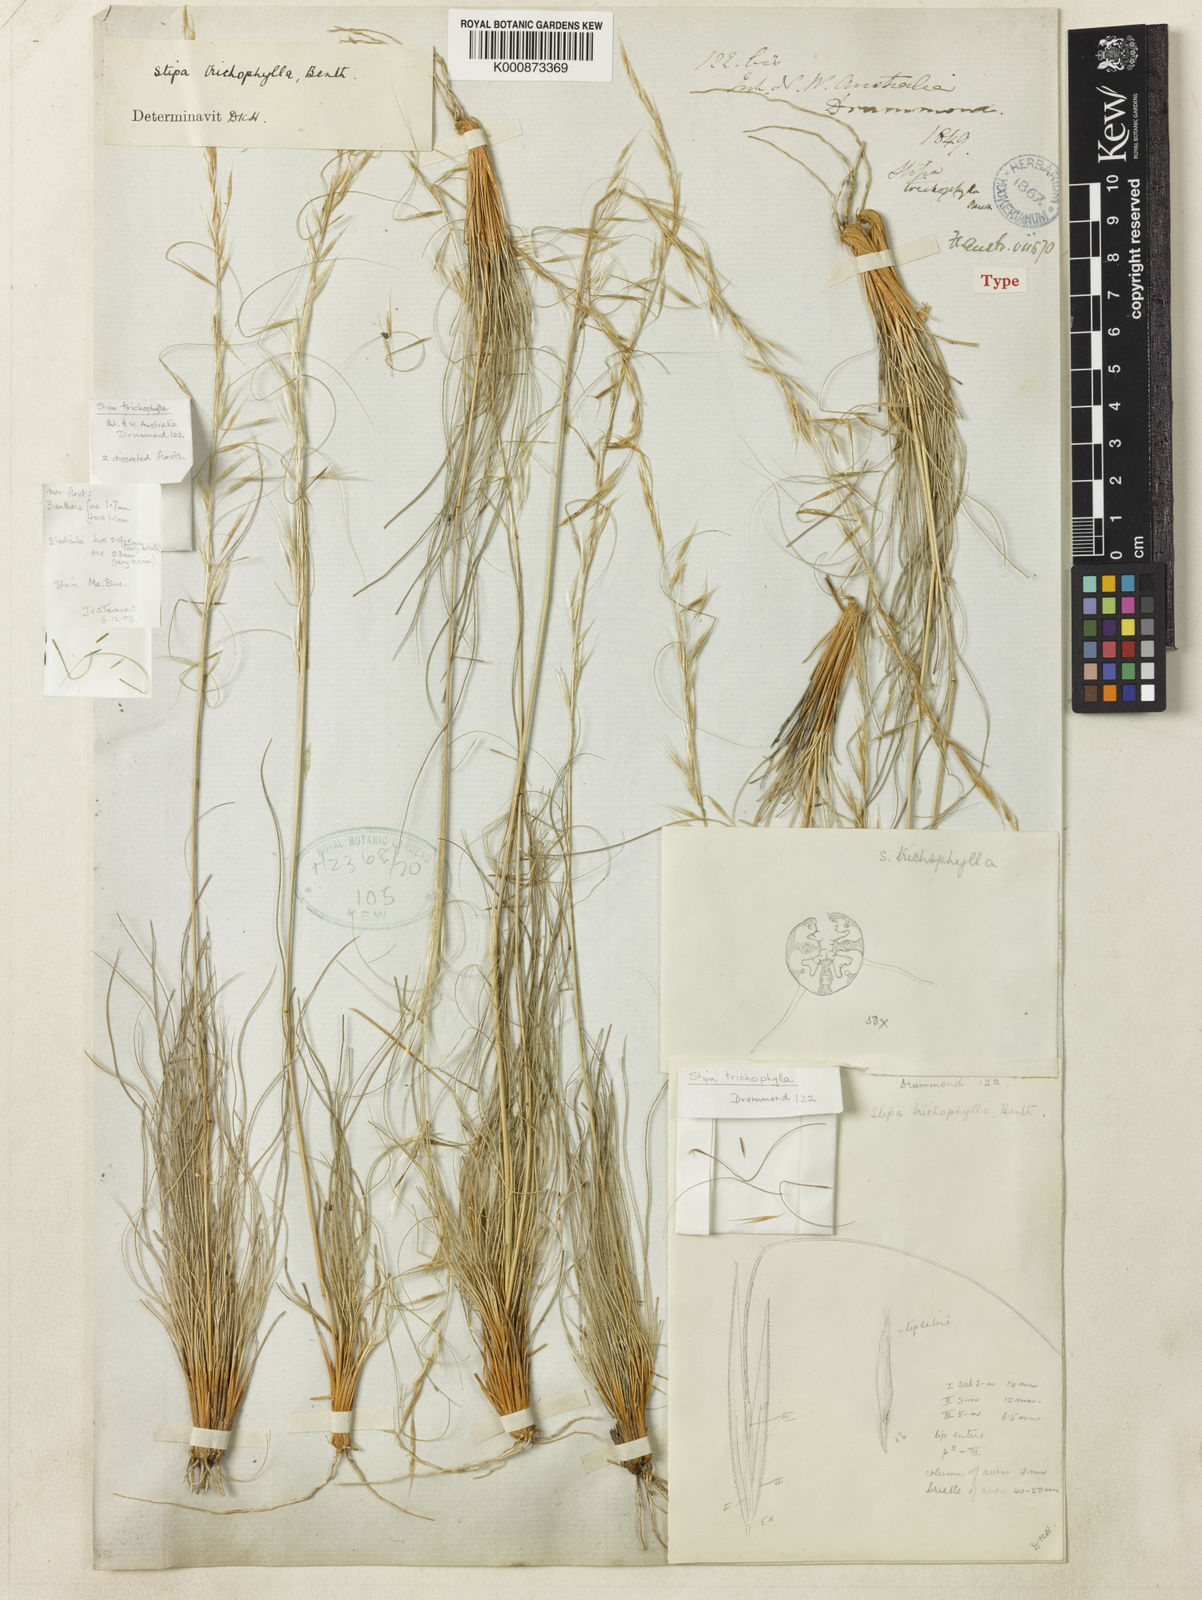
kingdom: Plantae
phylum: Tracheophyta
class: Liliopsida
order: Poales
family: Poaceae
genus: Austrostipa
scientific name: Austrostipa trichophylla
